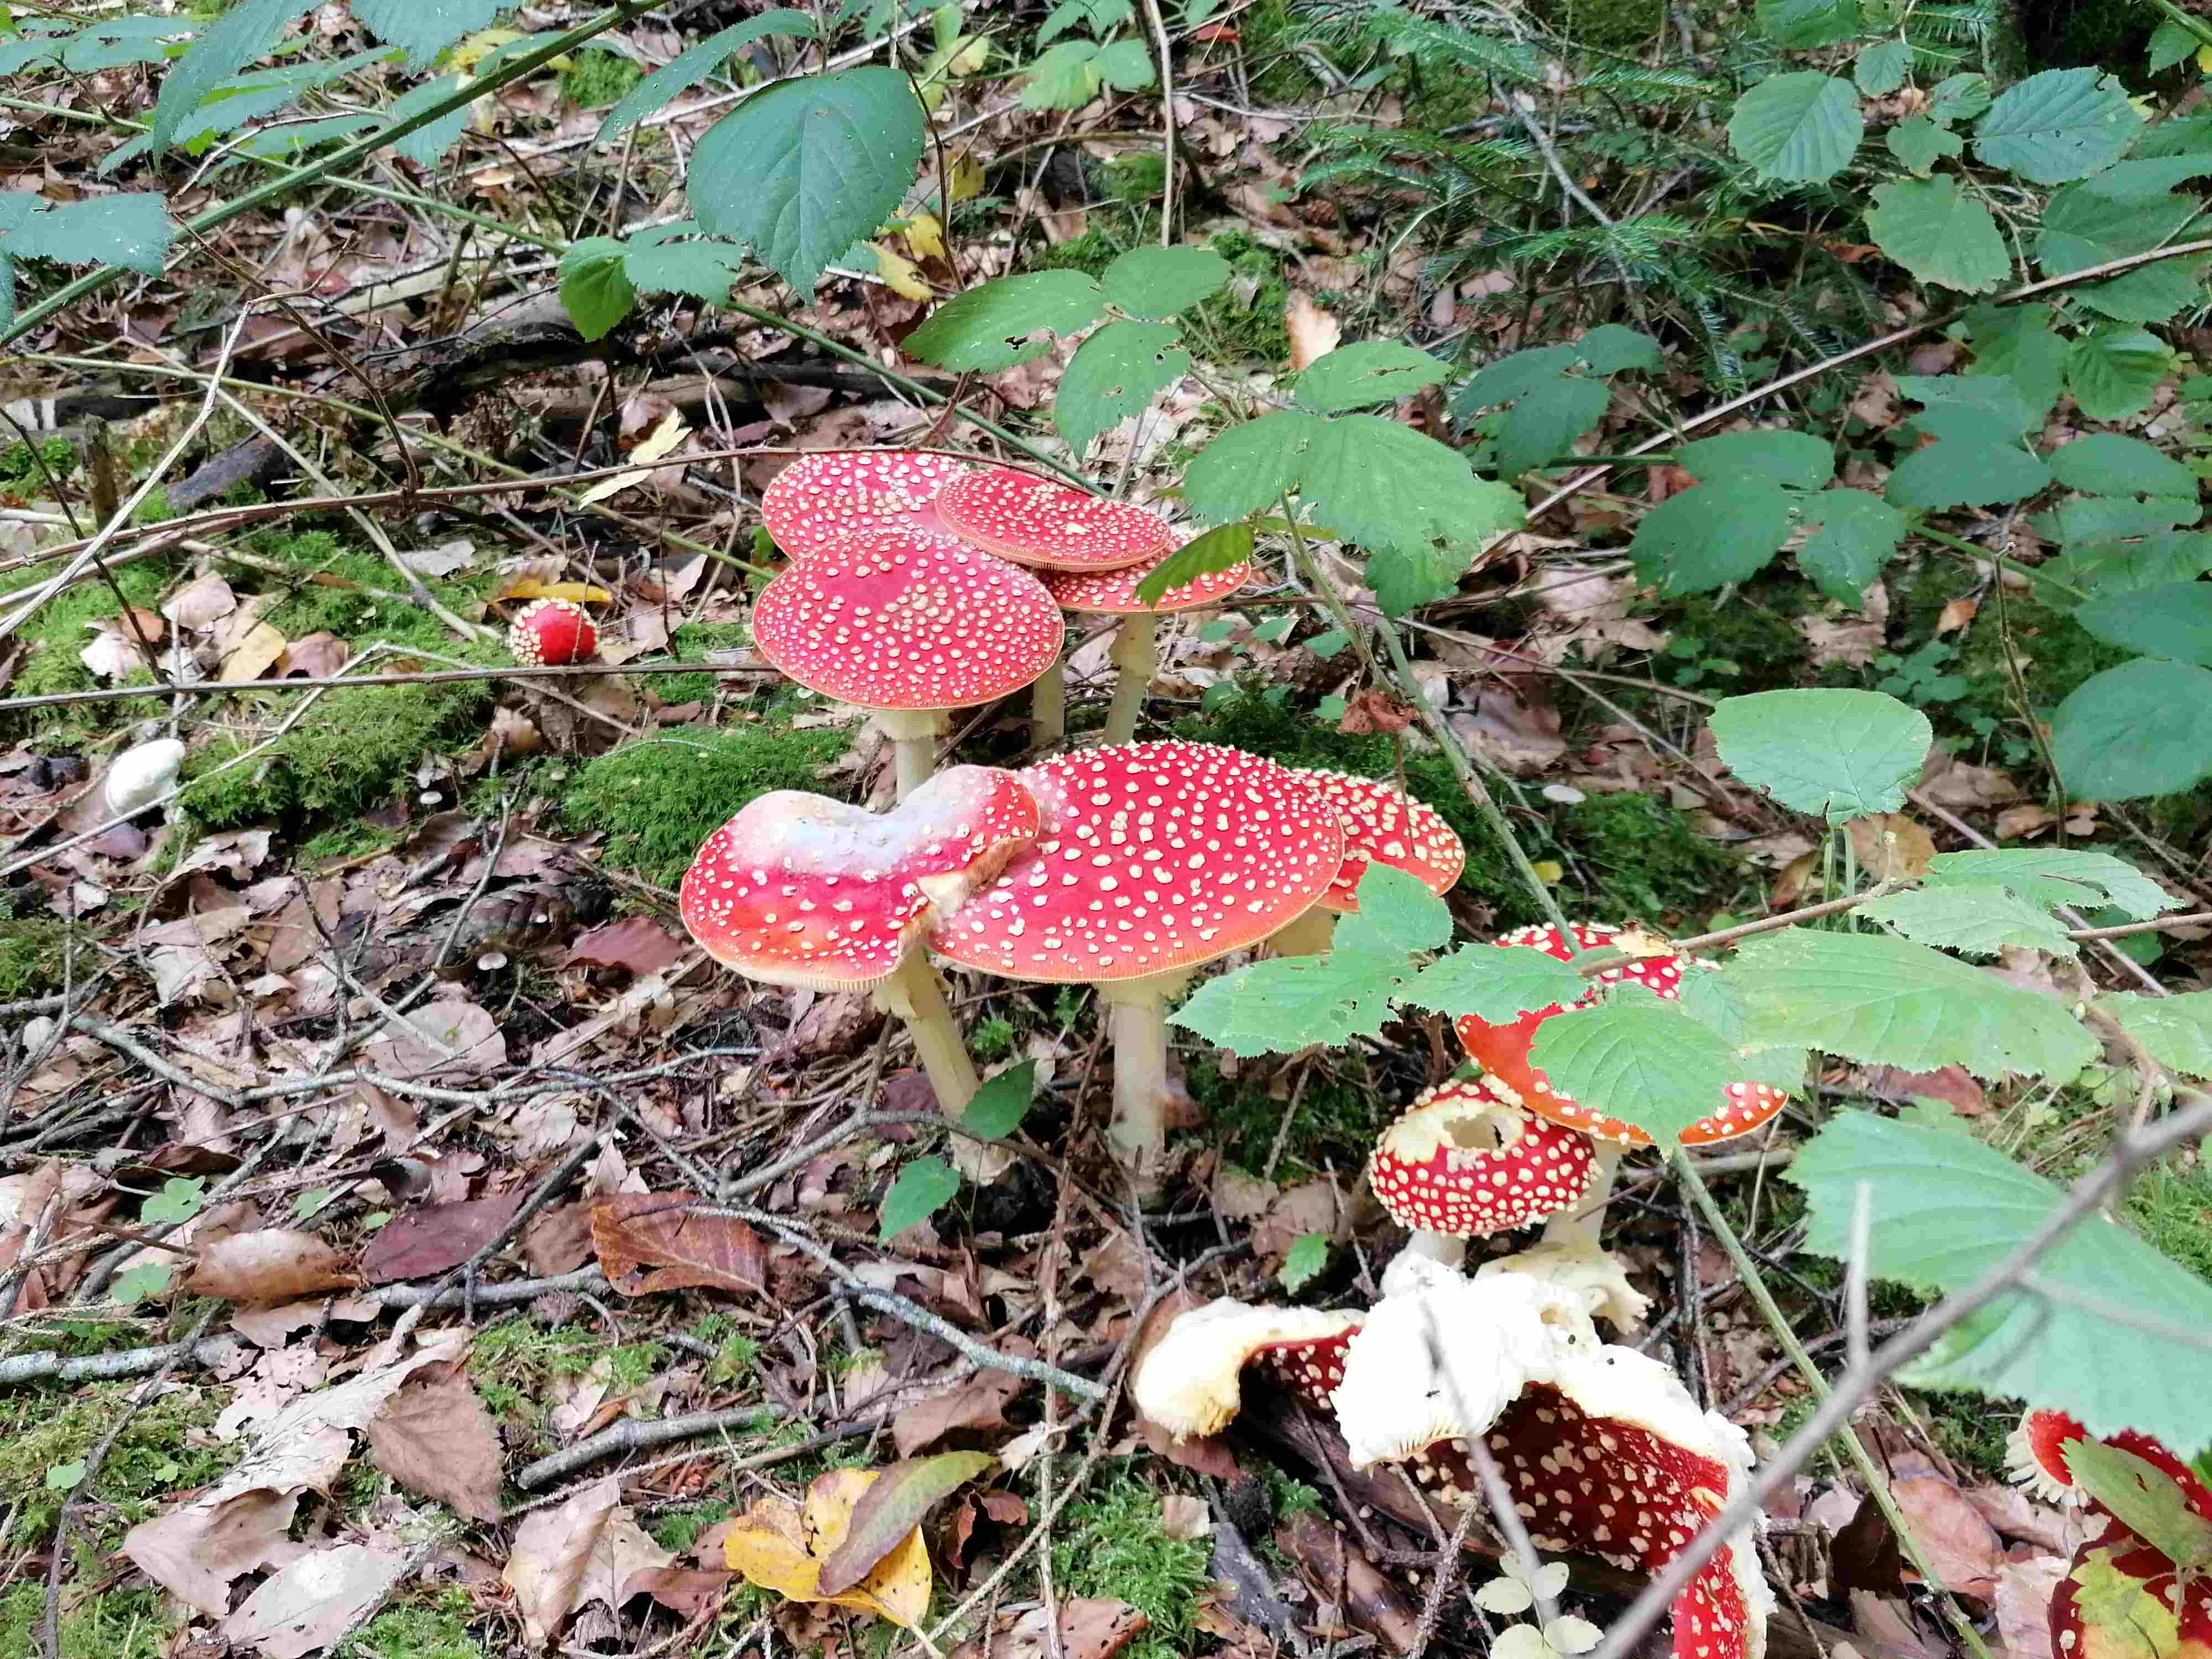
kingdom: Fungi
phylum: Basidiomycota
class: Agaricomycetes
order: Agaricales
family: Amanitaceae
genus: Amanita
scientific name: Amanita muscaria
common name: rød fluesvamp
